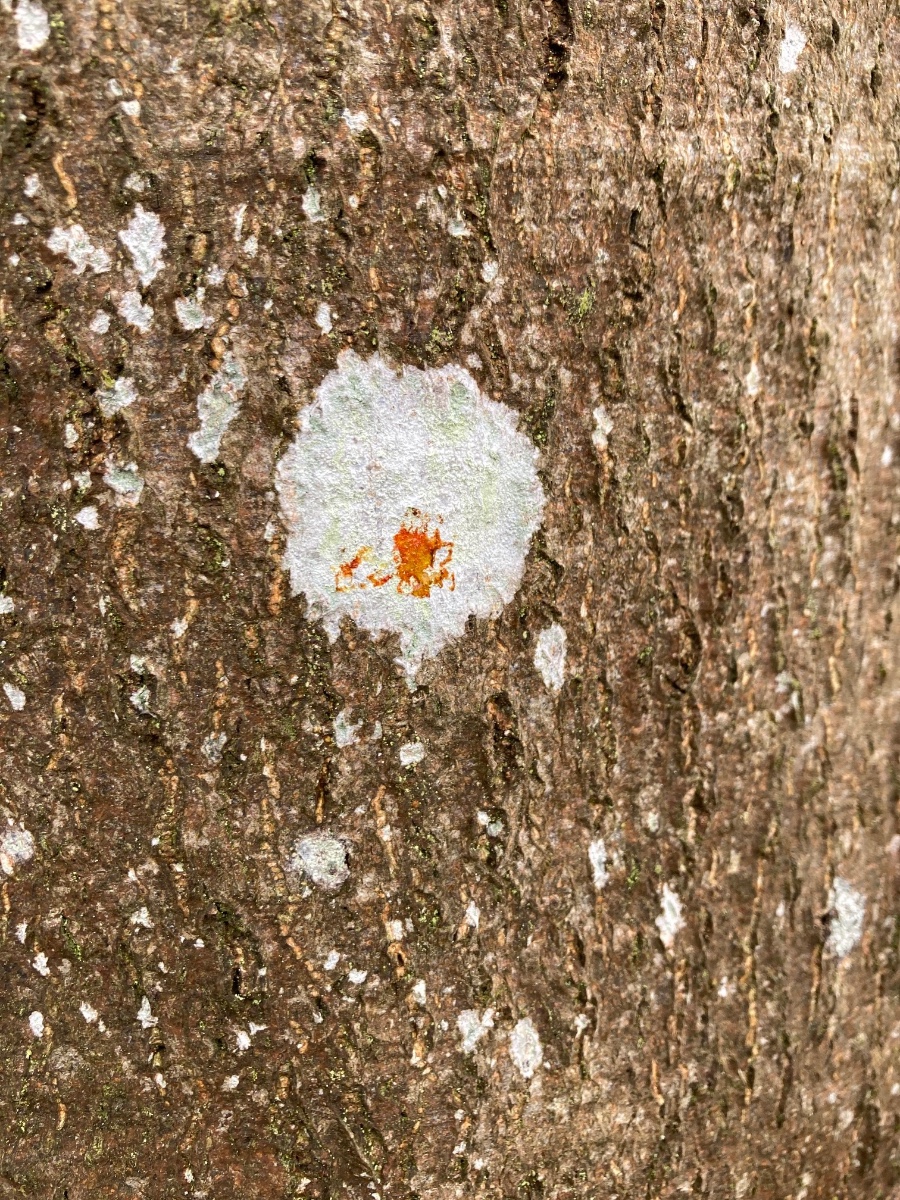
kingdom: Fungi
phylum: Ascomycota
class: Lecanoromycetes
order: Ostropales
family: Phlyctidaceae
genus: Phlyctis
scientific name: Phlyctis argena
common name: almindelig sølvlav
